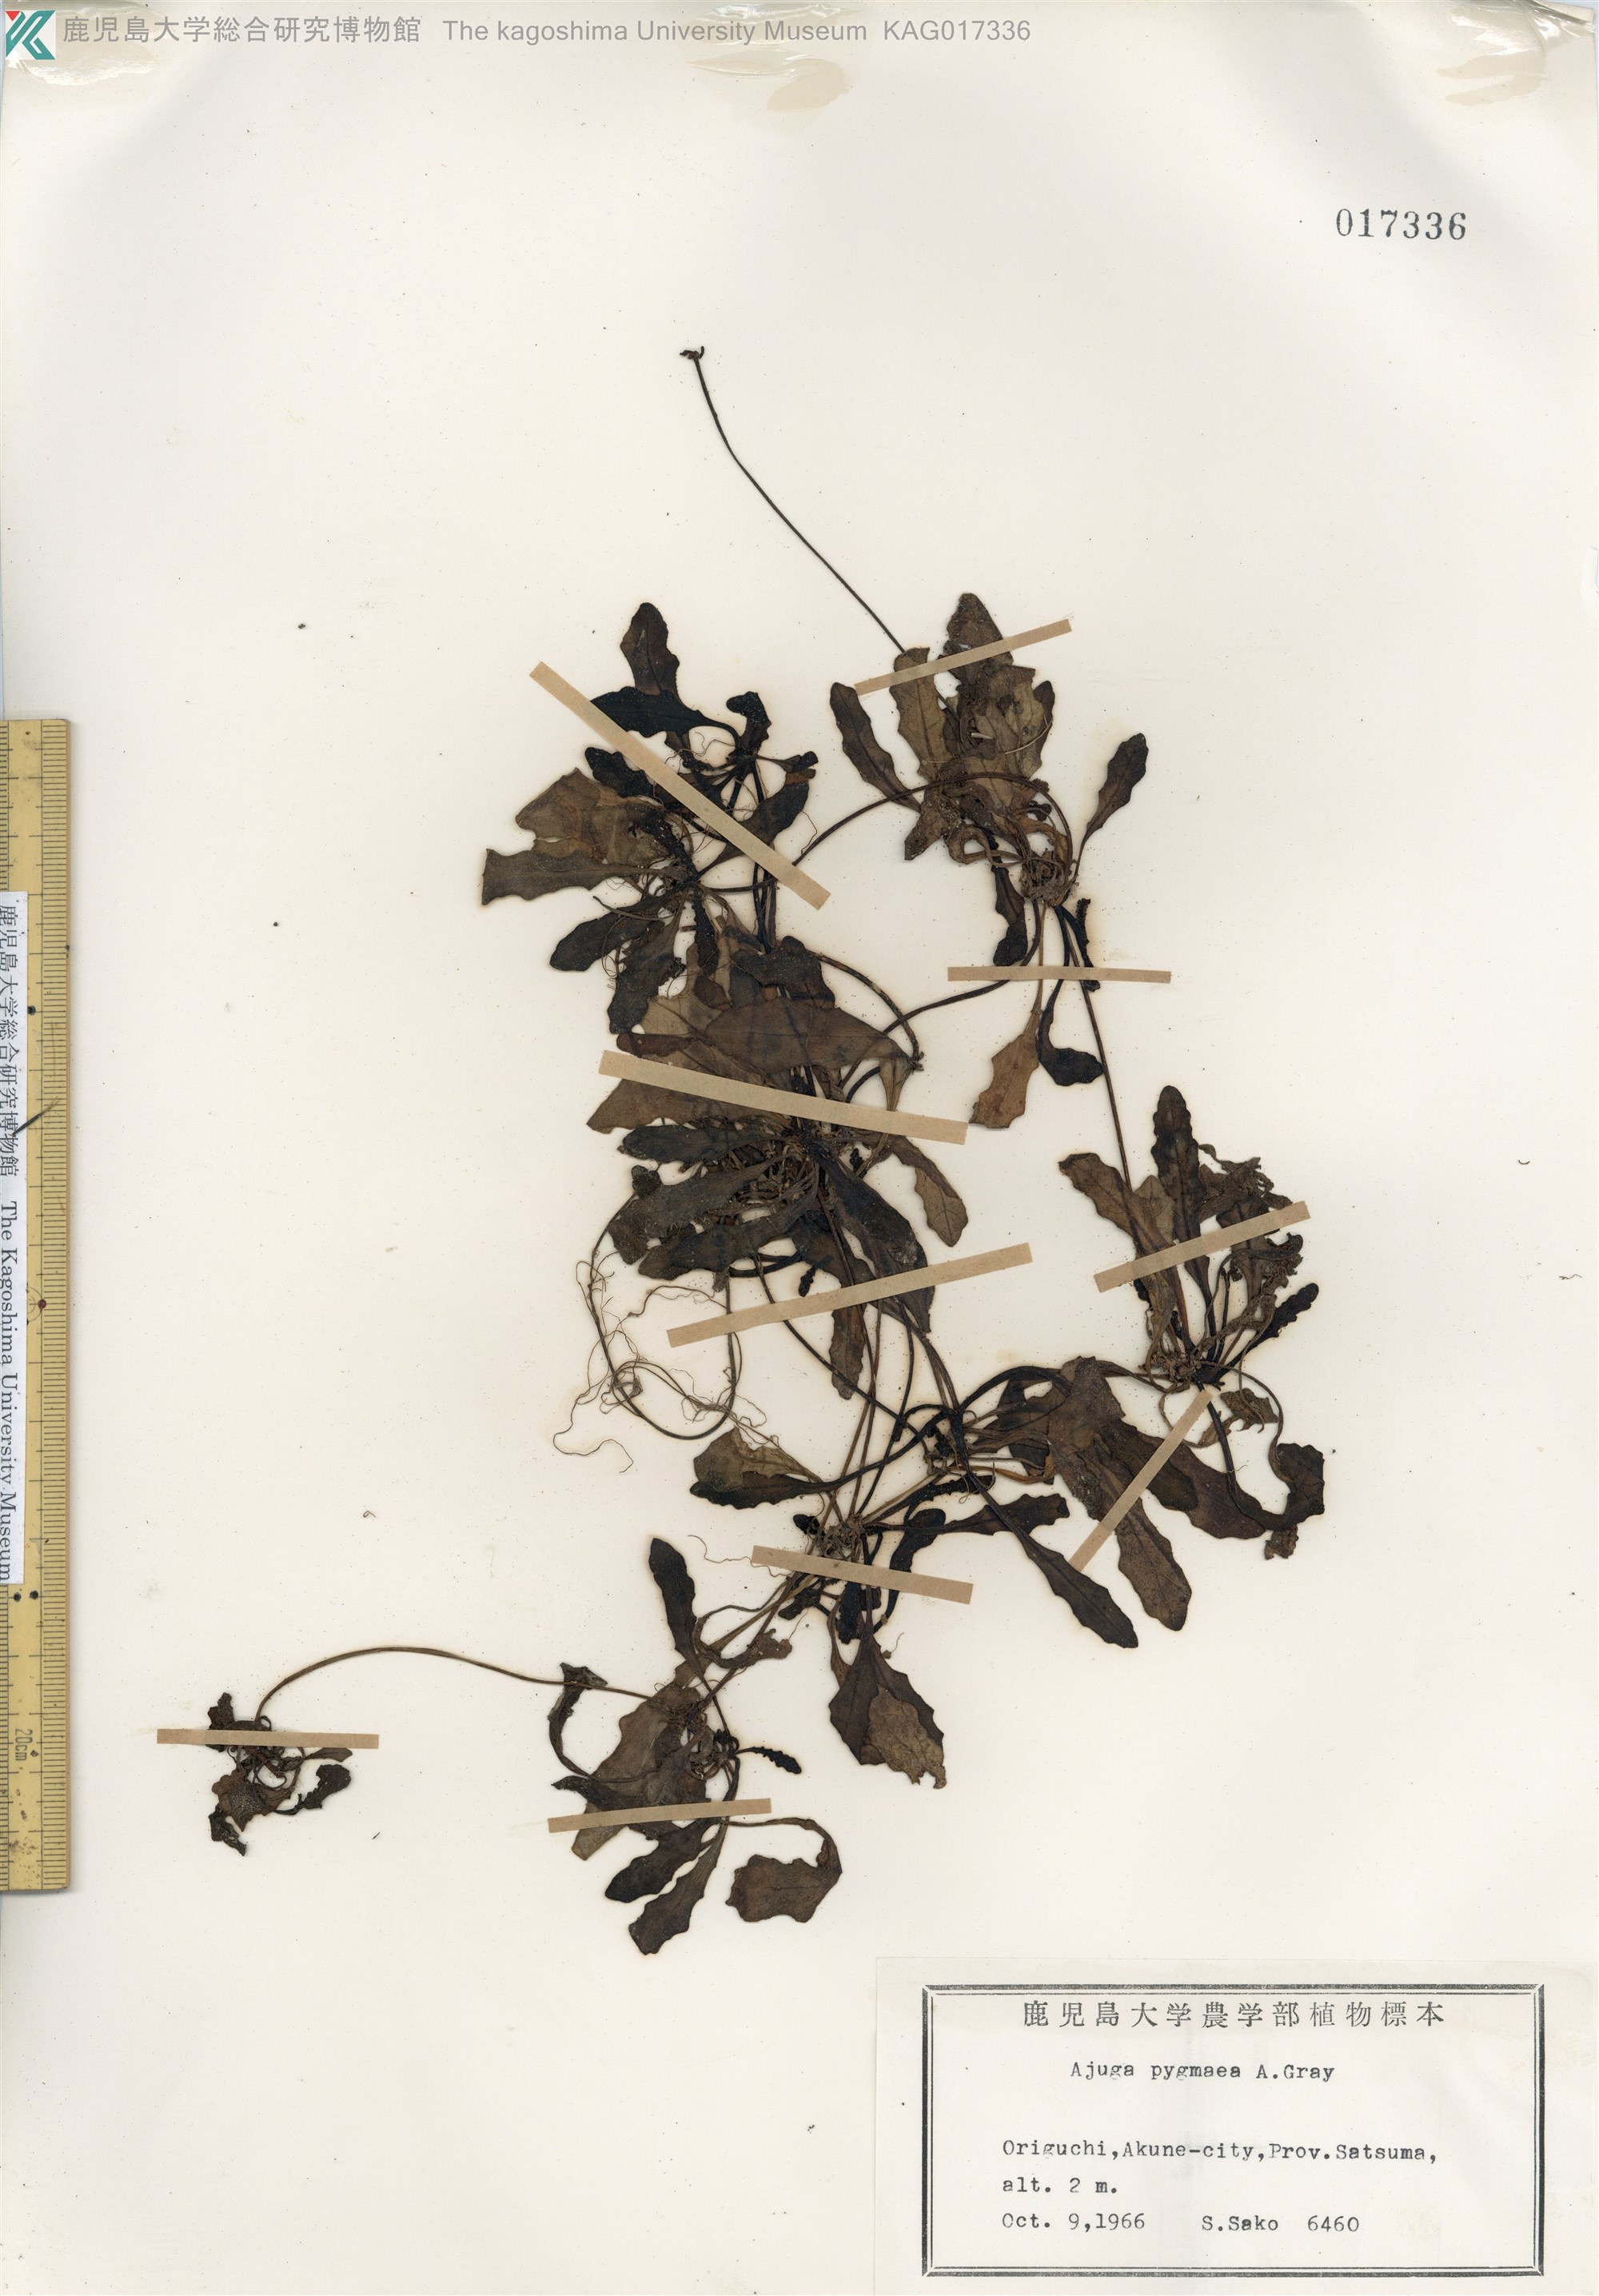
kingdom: Plantae
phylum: Tracheophyta
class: Magnoliopsida
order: Lamiales
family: Lamiaceae
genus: Ajuga
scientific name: Ajuga pygmaea
